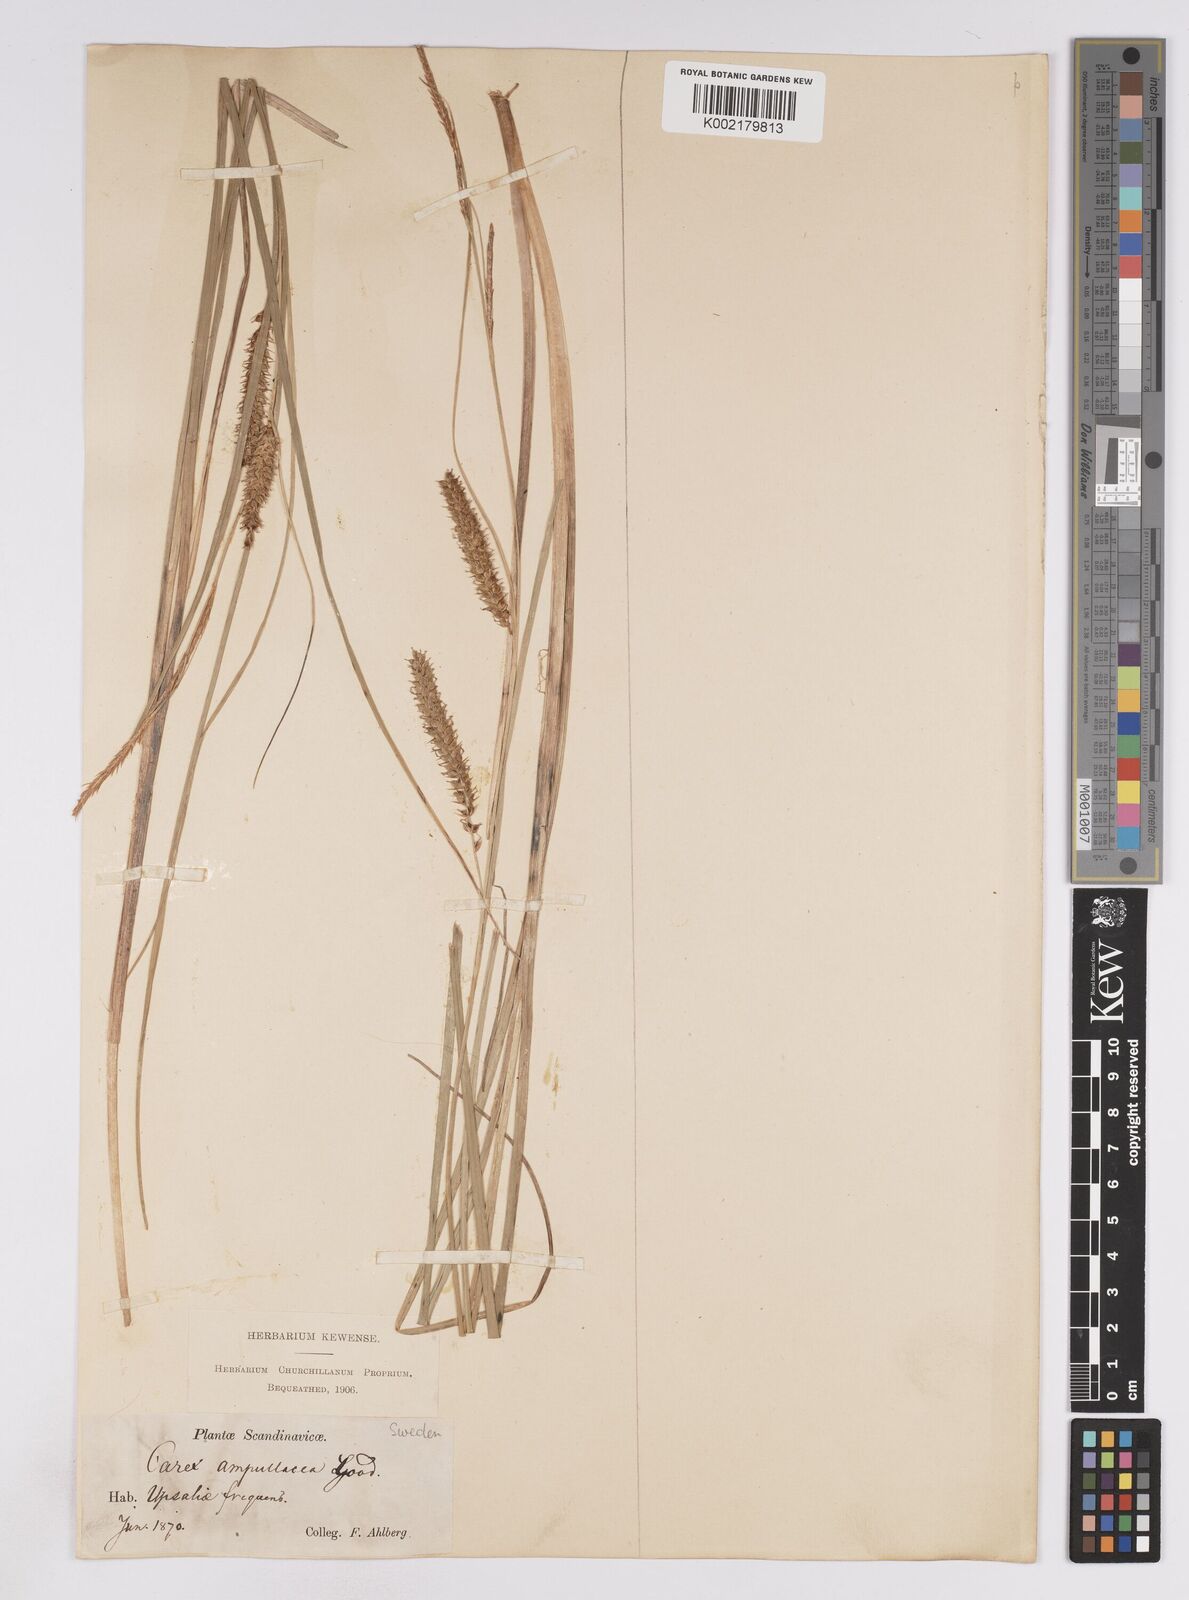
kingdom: Plantae
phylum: Tracheophyta
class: Liliopsida
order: Poales
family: Cyperaceae
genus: Carex
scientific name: Carex rostrata
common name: Bottle sedge
